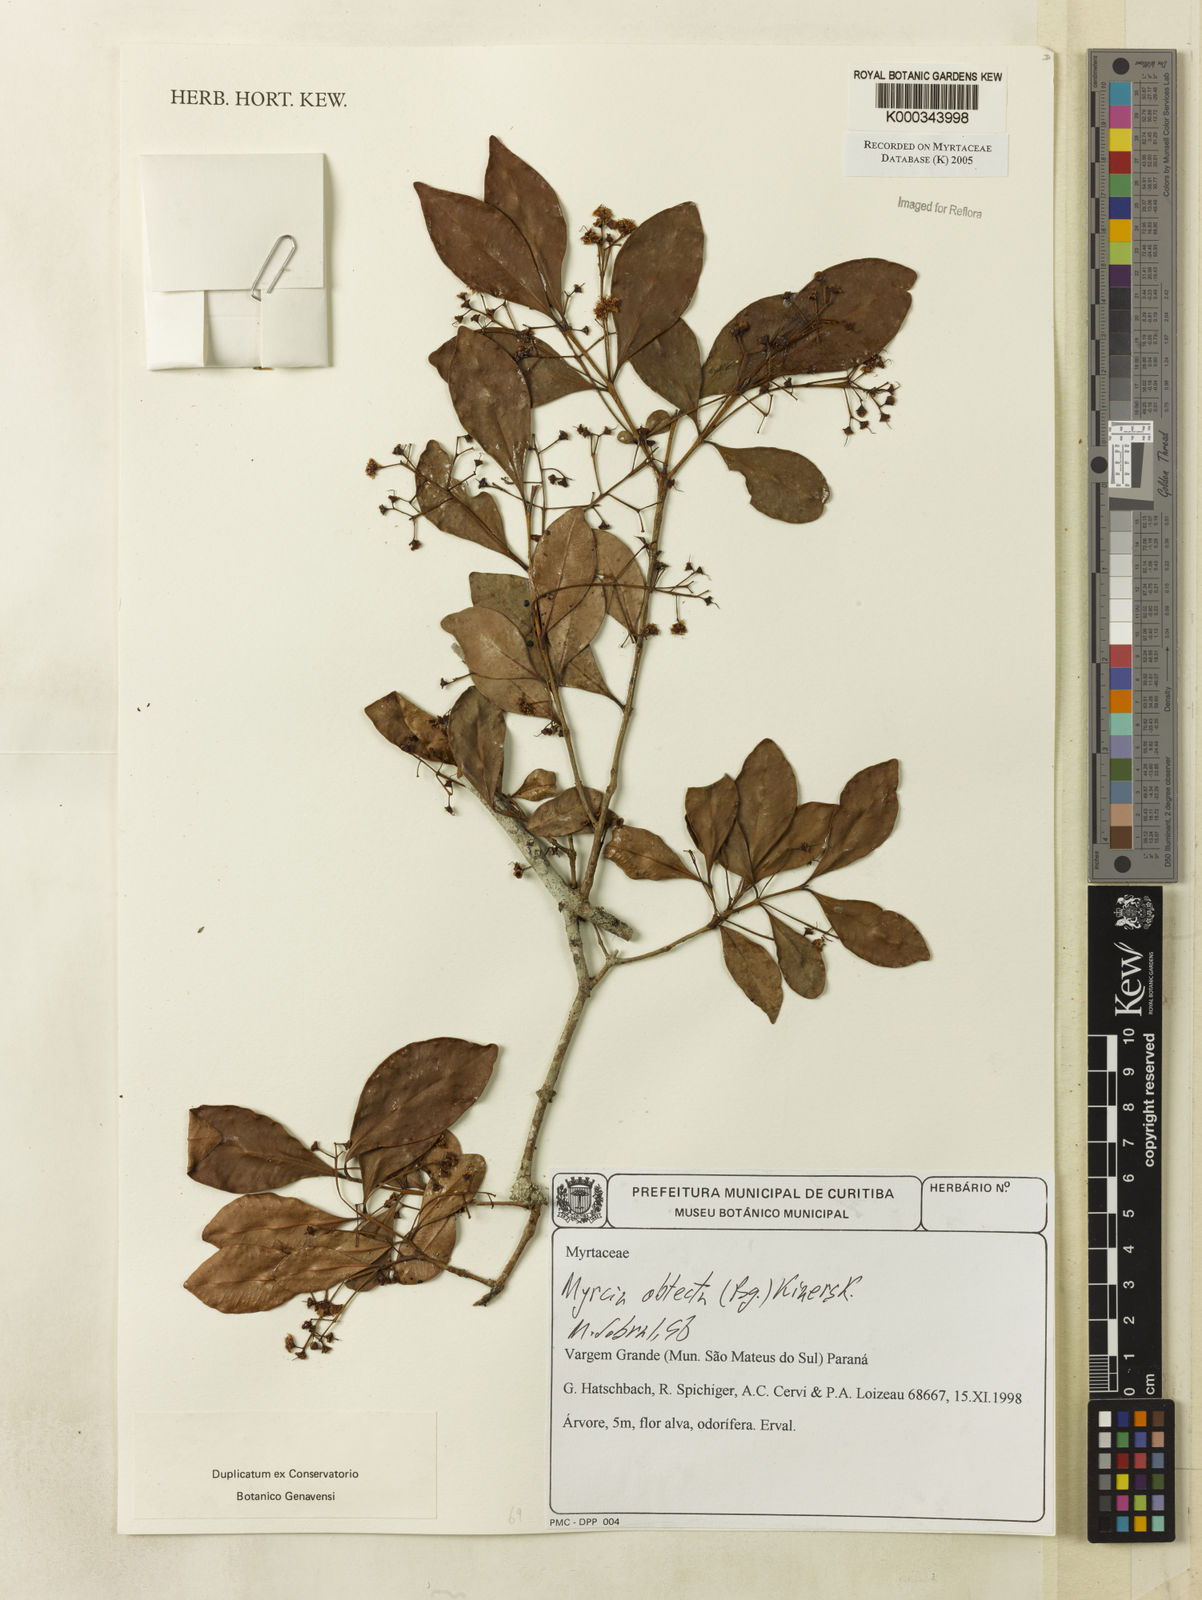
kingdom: Plantae
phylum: Tracheophyta
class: Magnoliopsida
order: Myrtales
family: Myrtaceae
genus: Myrcia
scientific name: Myrcia guianensis
